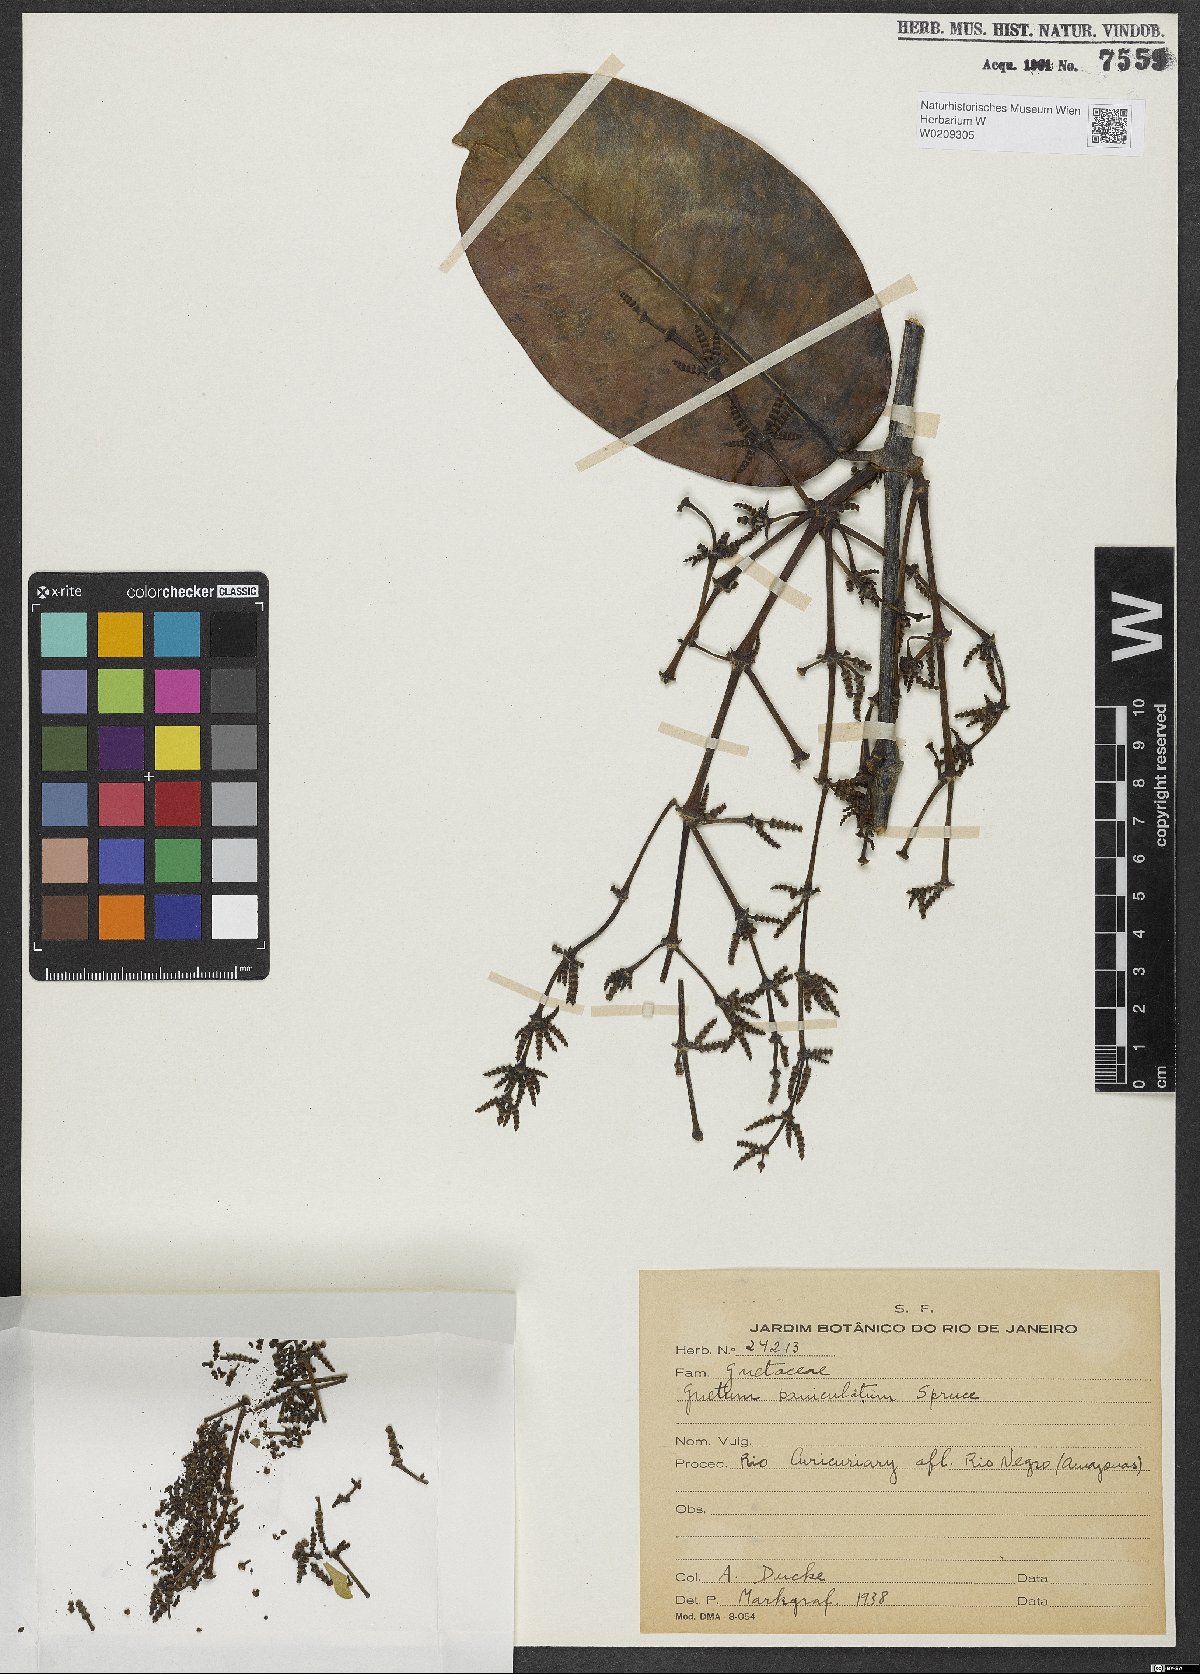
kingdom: Plantae
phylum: Tracheophyta
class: Gnetopsida
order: Gnetales
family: Gnetaceae
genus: Gnetum
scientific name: Gnetum paniculatum
